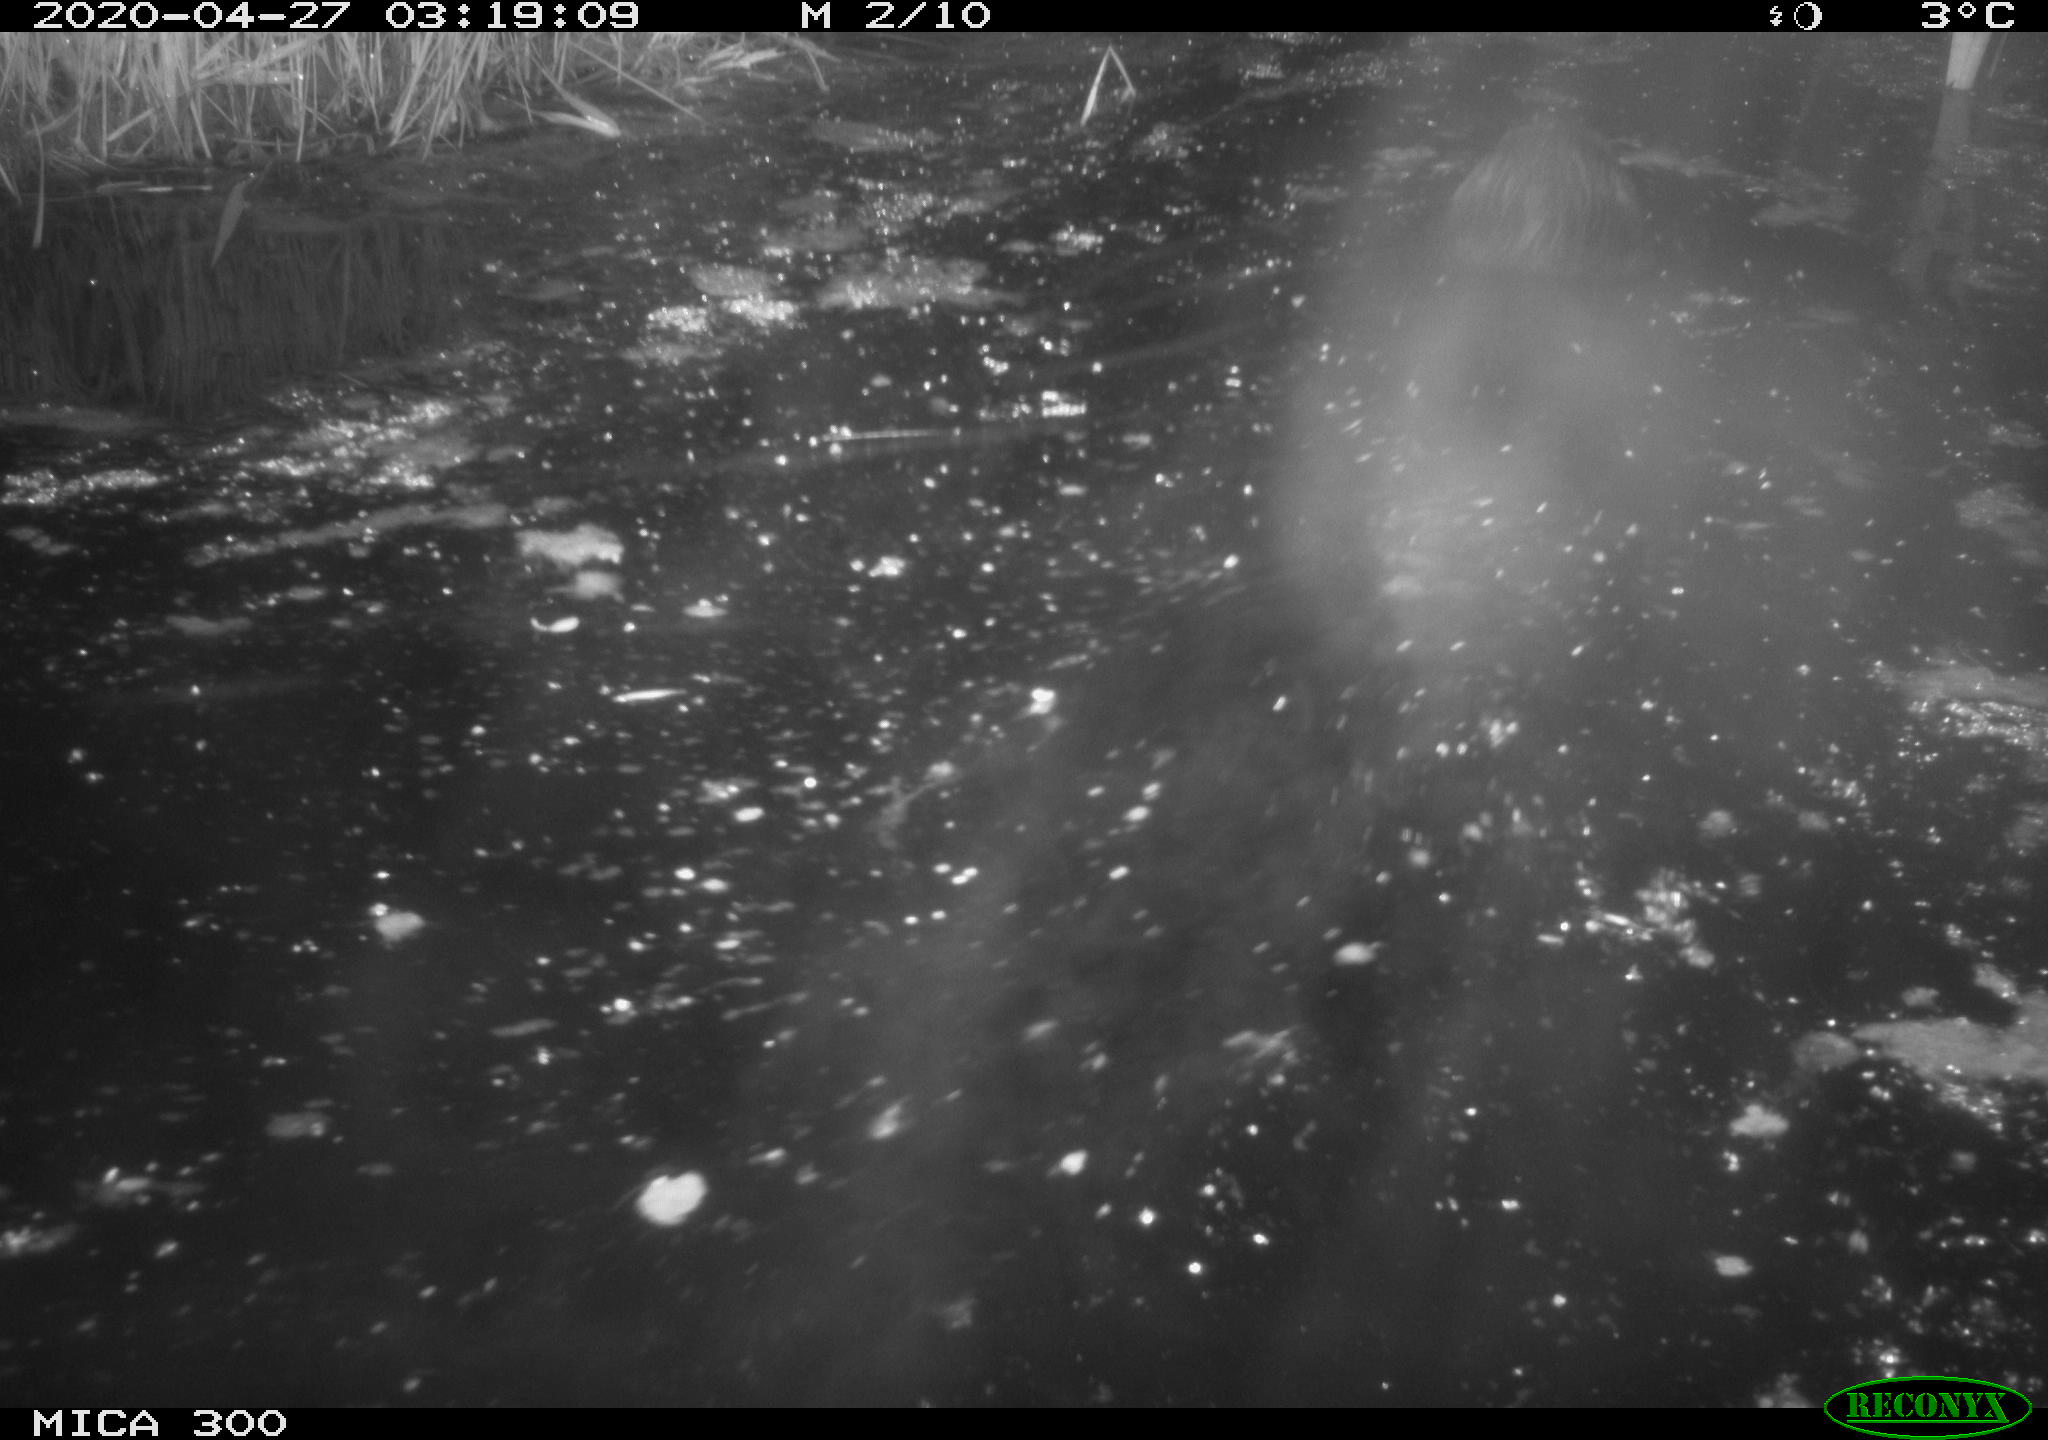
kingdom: Animalia
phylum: Chordata
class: Mammalia
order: Rodentia
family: Castoridae
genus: Castor
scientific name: Castor fiber
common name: Eurasian beaver
